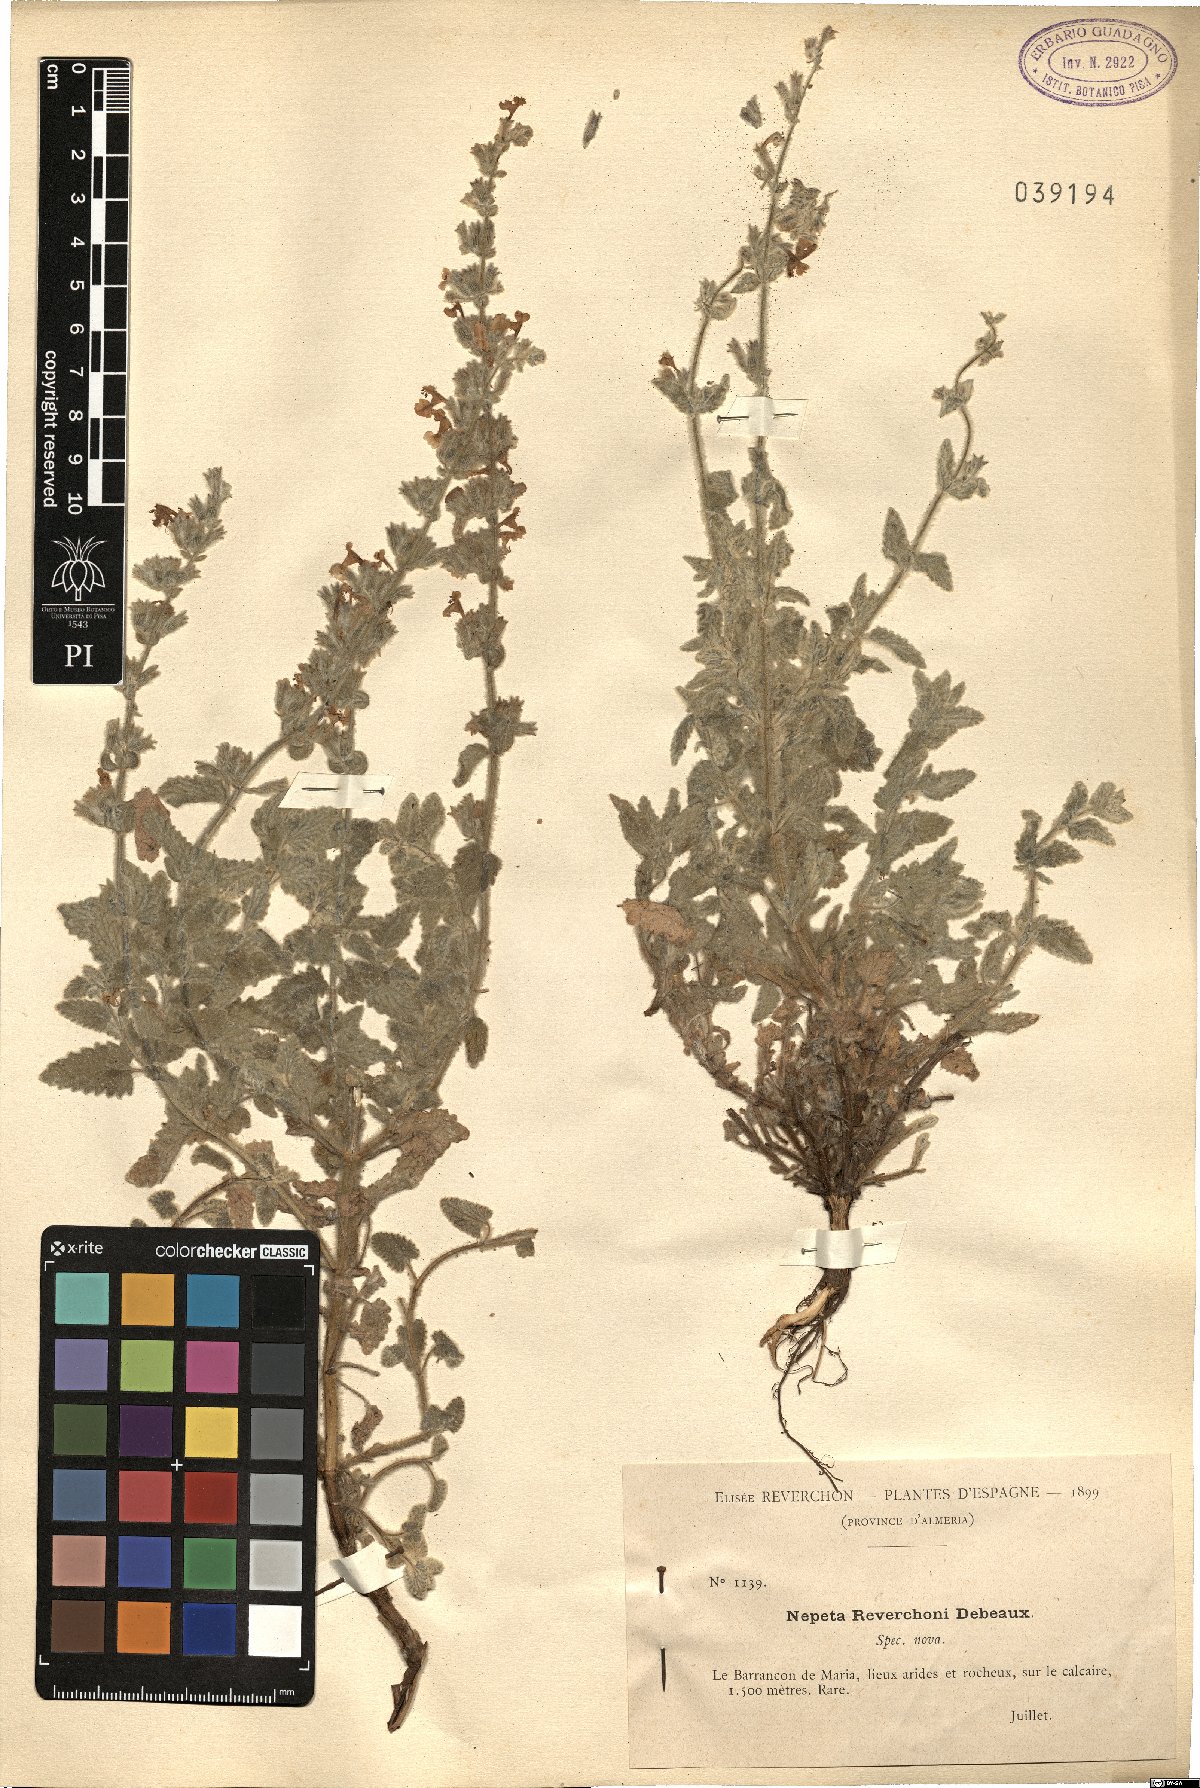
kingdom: Plantae
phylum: Tracheophyta
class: Magnoliopsida
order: Lamiales
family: Lamiaceae
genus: Nepeta
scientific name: Nepeta
